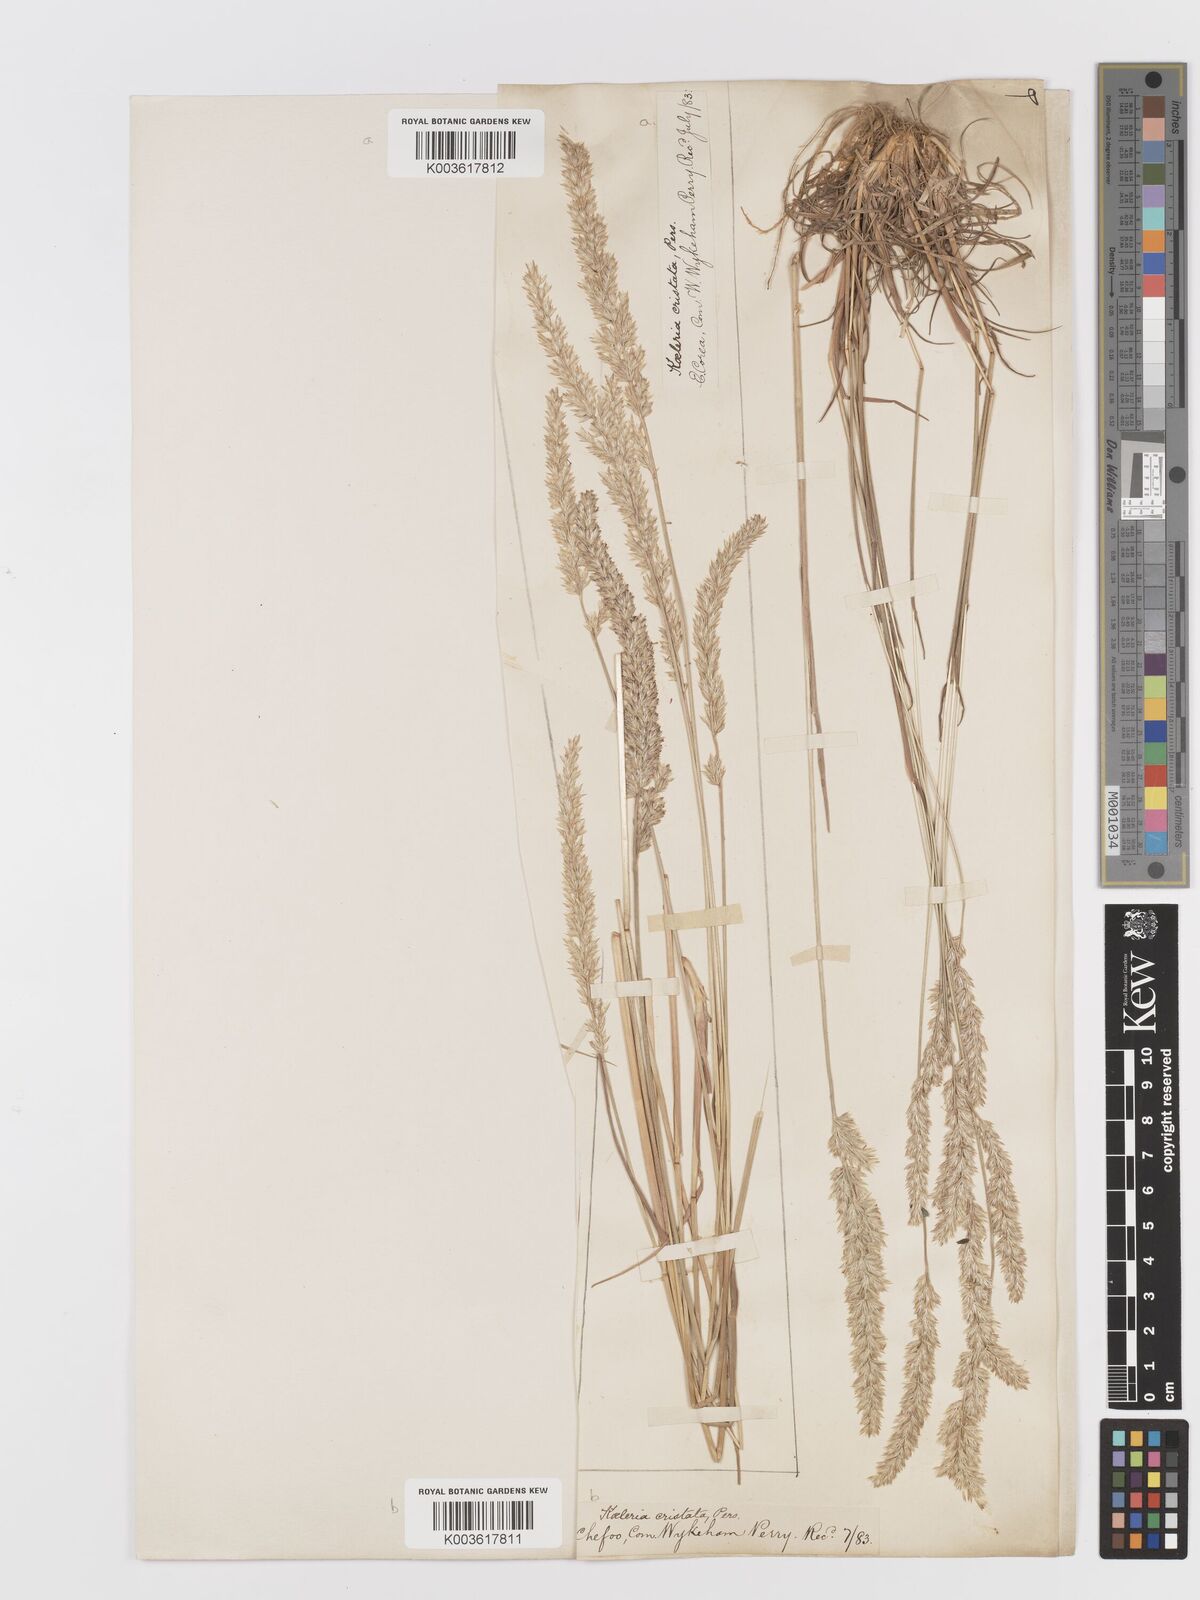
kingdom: Plantae
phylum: Tracheophyta
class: Liliopsida
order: Poales
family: Poaceae
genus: Koeleria
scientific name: Koeleria macrantha
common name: Crested hair-grass
